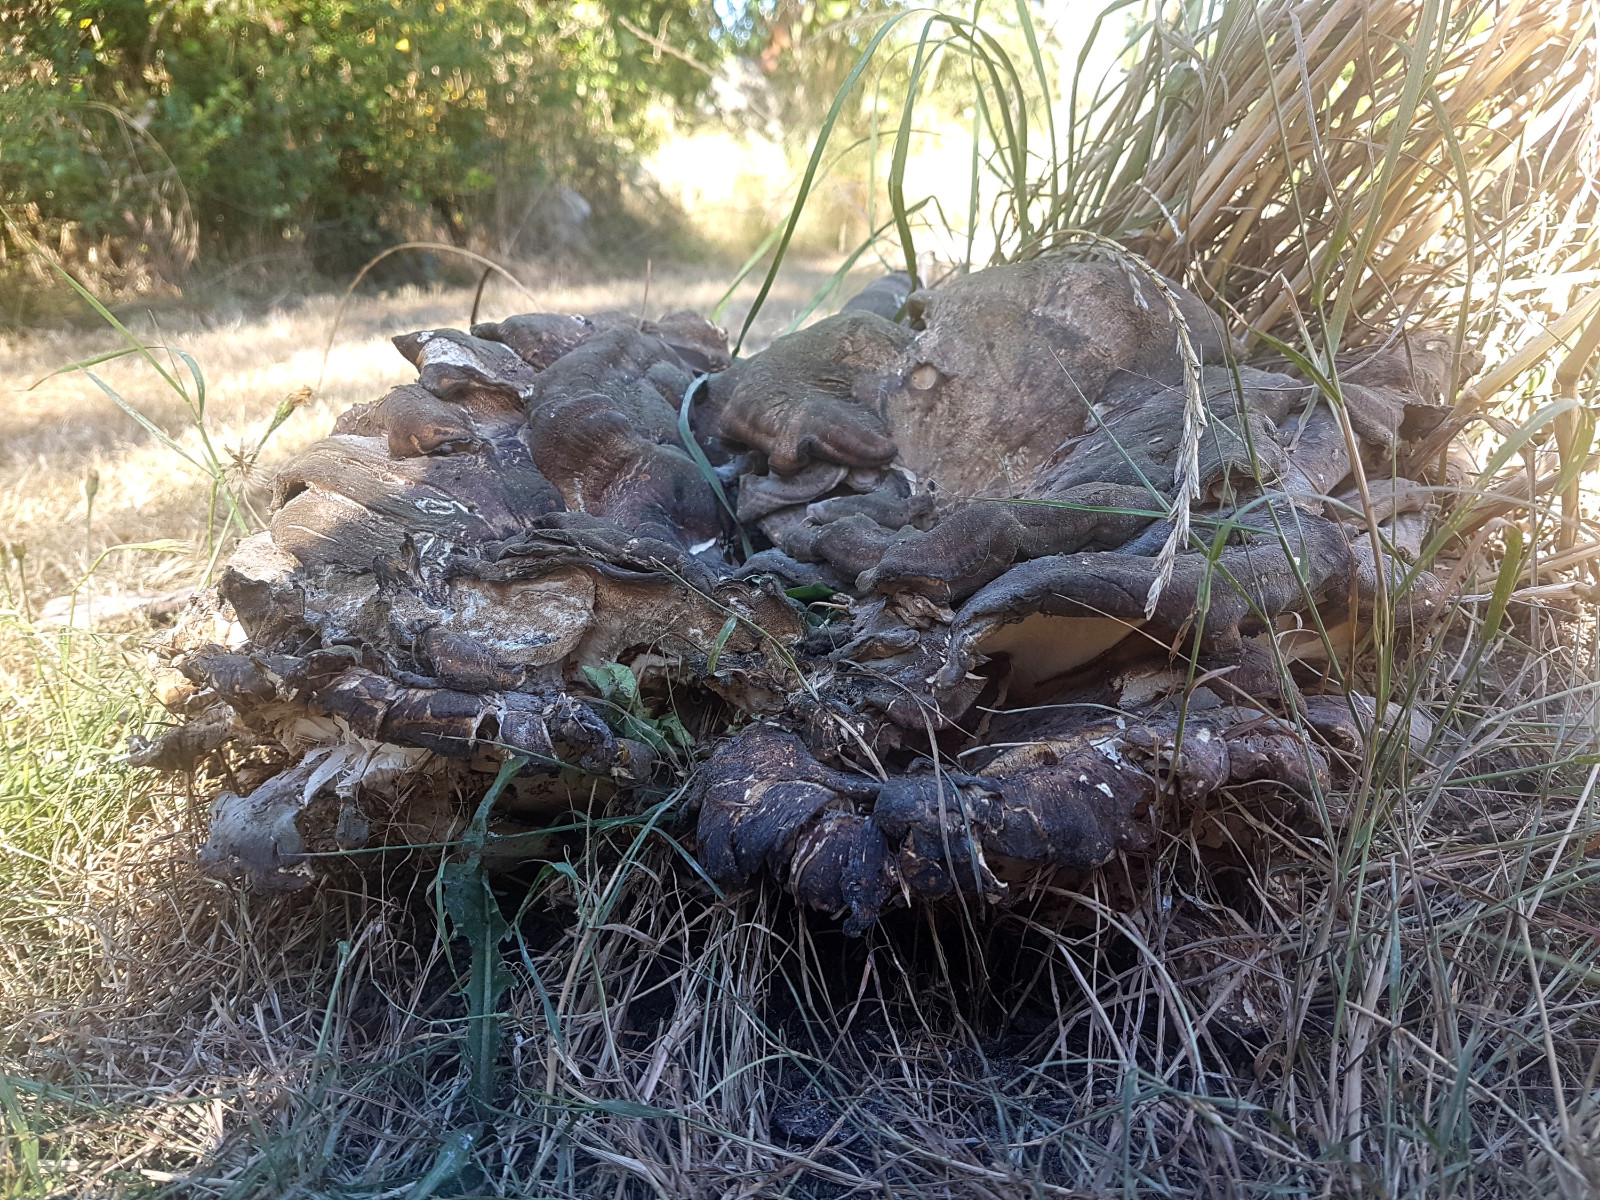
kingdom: Fungi
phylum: Basidiomycota
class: Agaricomycetes
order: Polyporales
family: Meripilaceae
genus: Meripilus
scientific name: Meripilus giganteus
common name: kæmpeporesvamp
